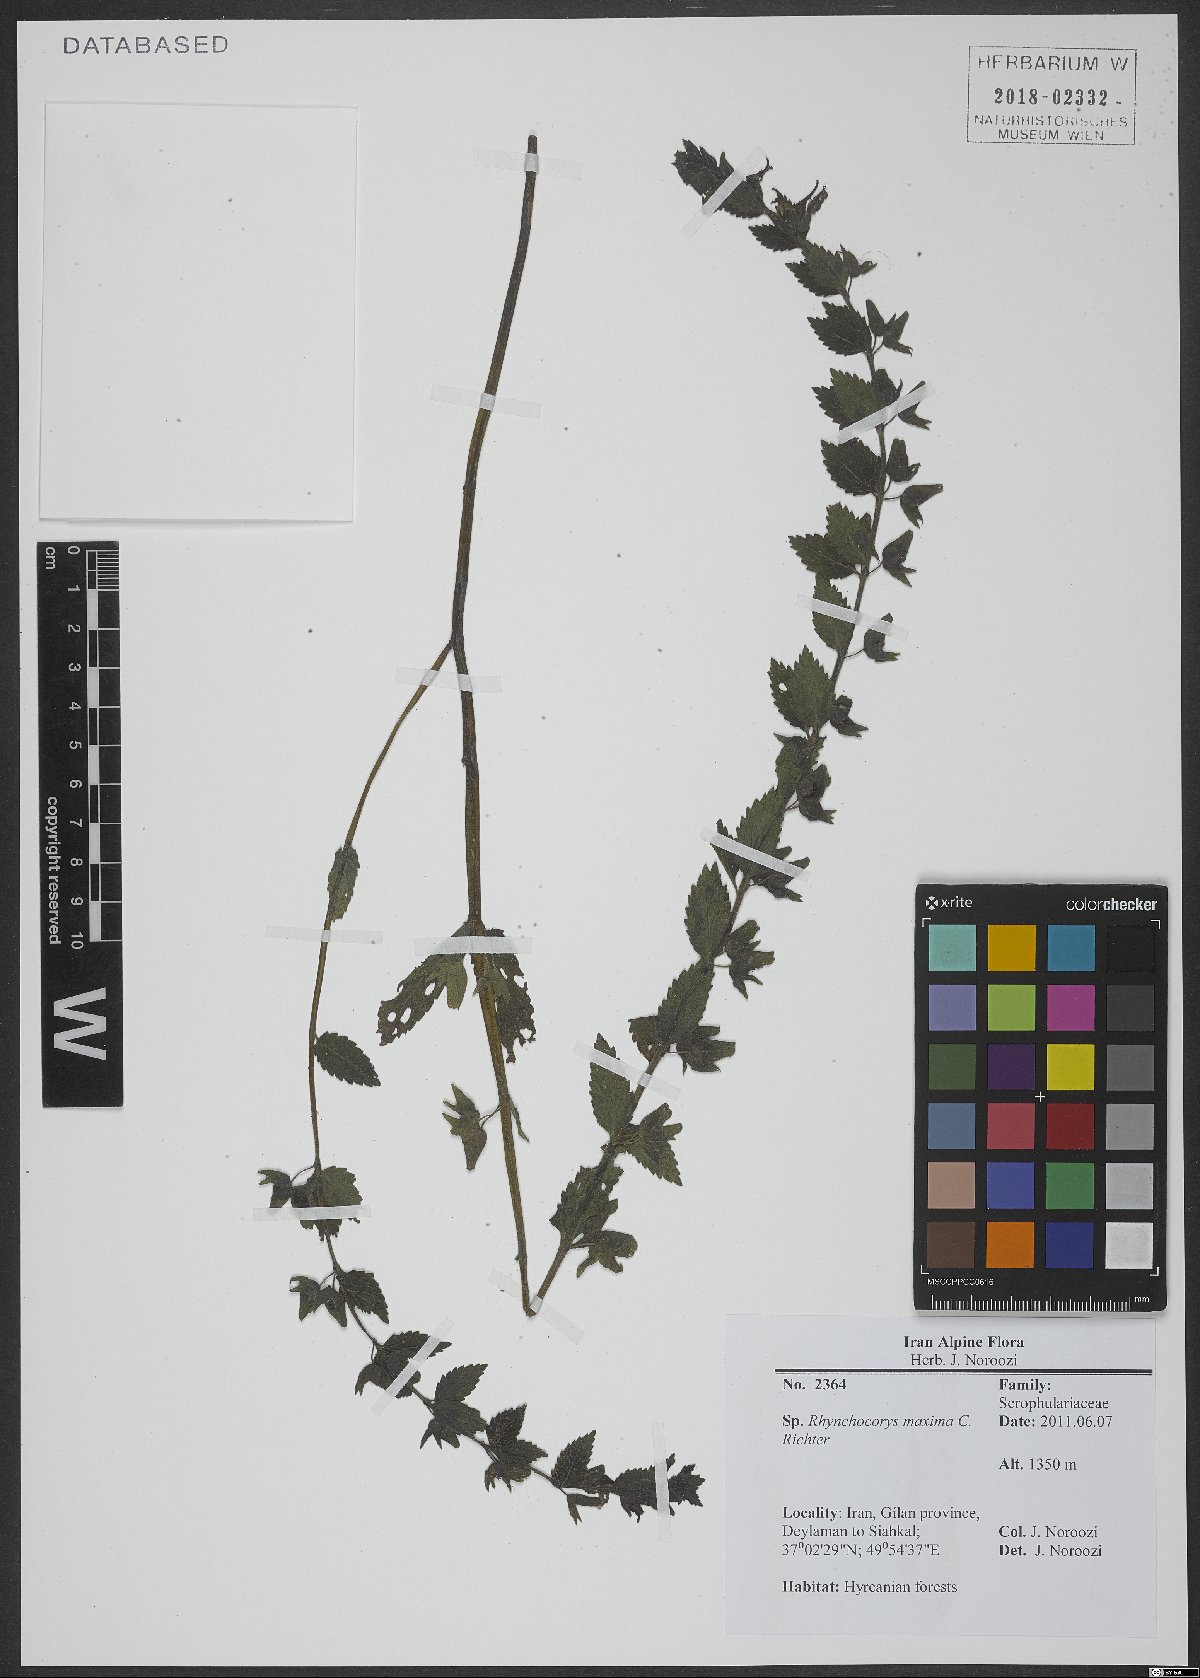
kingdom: Plantae
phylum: Tracheophyta
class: Magnoliopsida
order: Lamiales
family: Scrophulariaceae
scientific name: Scrophulariaceae
